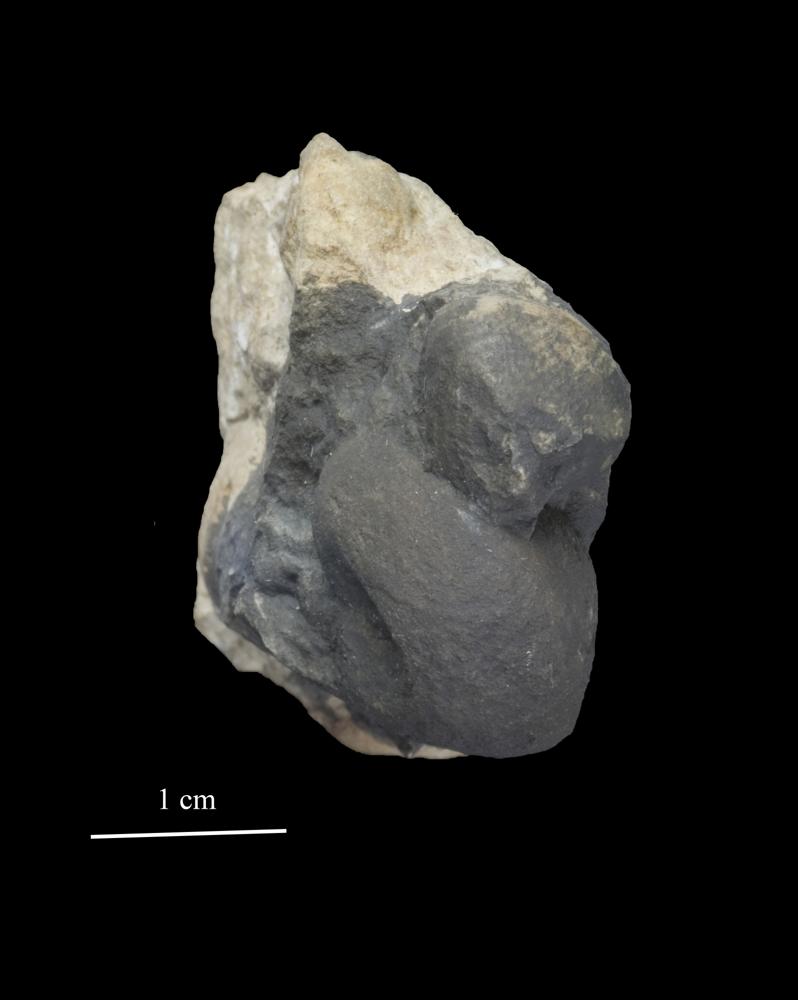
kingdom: Animalia
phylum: Mollusca
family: Bucanellidae
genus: Bucanella
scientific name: Bucanella
